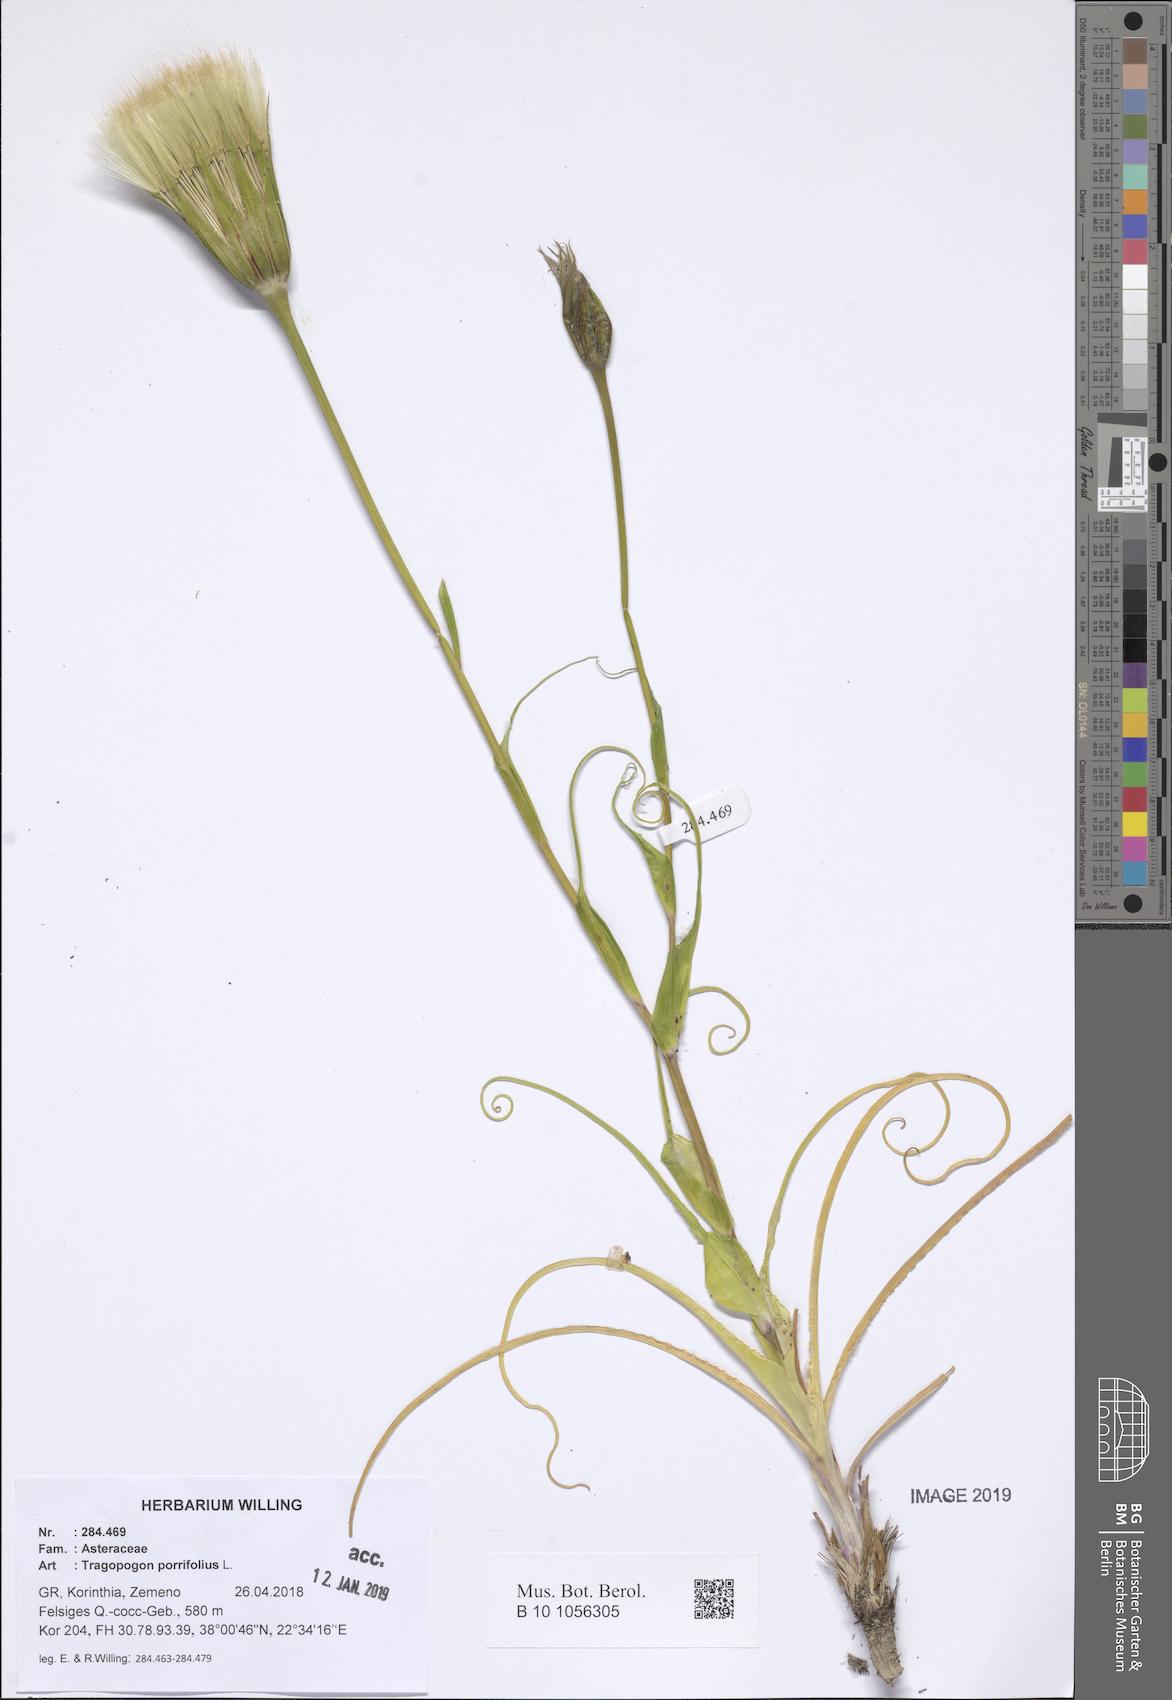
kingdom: Plantae
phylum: Tracheophyta
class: Magnoliopsida
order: Asterales
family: Asteraceae
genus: Tragopogon
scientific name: Tragopogon porrifolius
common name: Salsify
